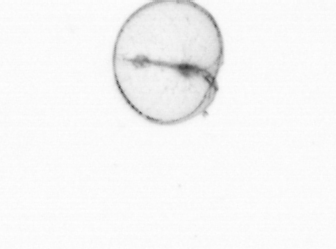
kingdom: Chromista
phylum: Myzozoa
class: Dinophyceae
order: Noctilucales
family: Noctilucaceae
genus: Noctiluca
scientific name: Noctiluca scintillans
